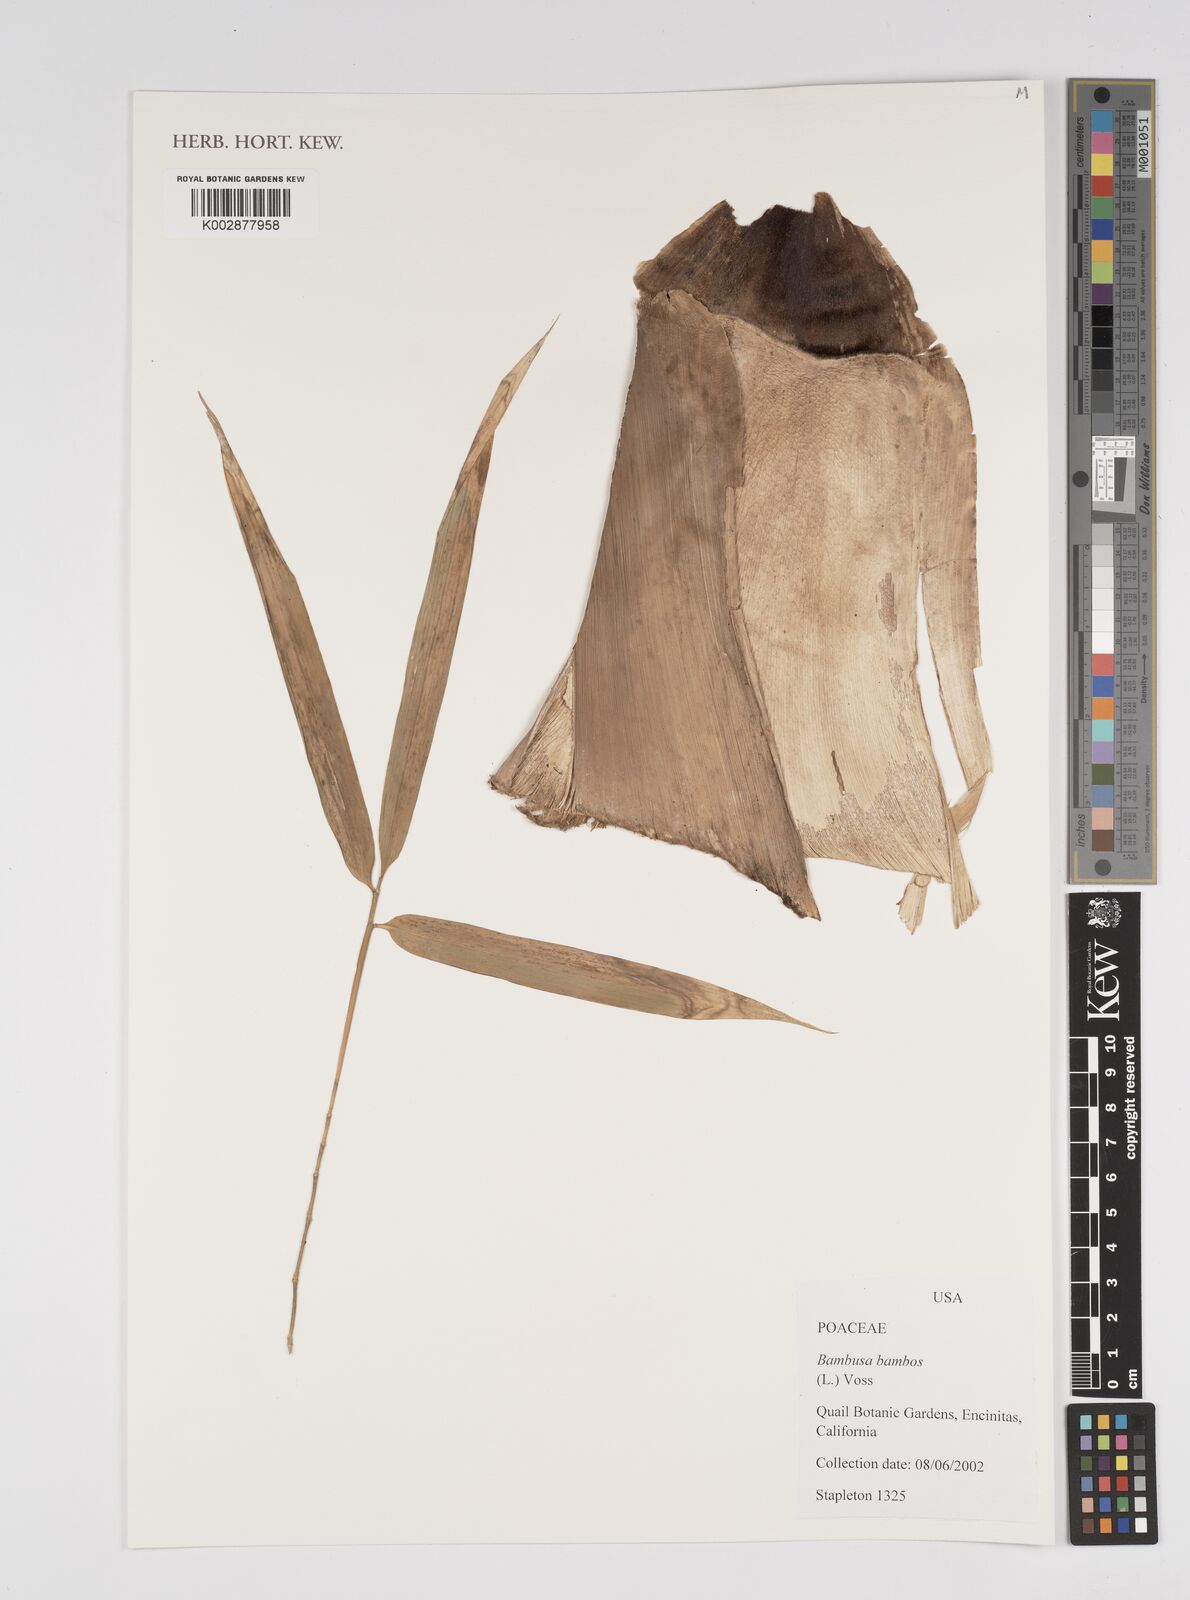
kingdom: Plantae
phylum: Tracheophyta
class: Liliopsida
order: Poales
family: Poaceae
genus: Bambusa
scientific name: Bambusa bambos
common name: Indian thorny bamboo
